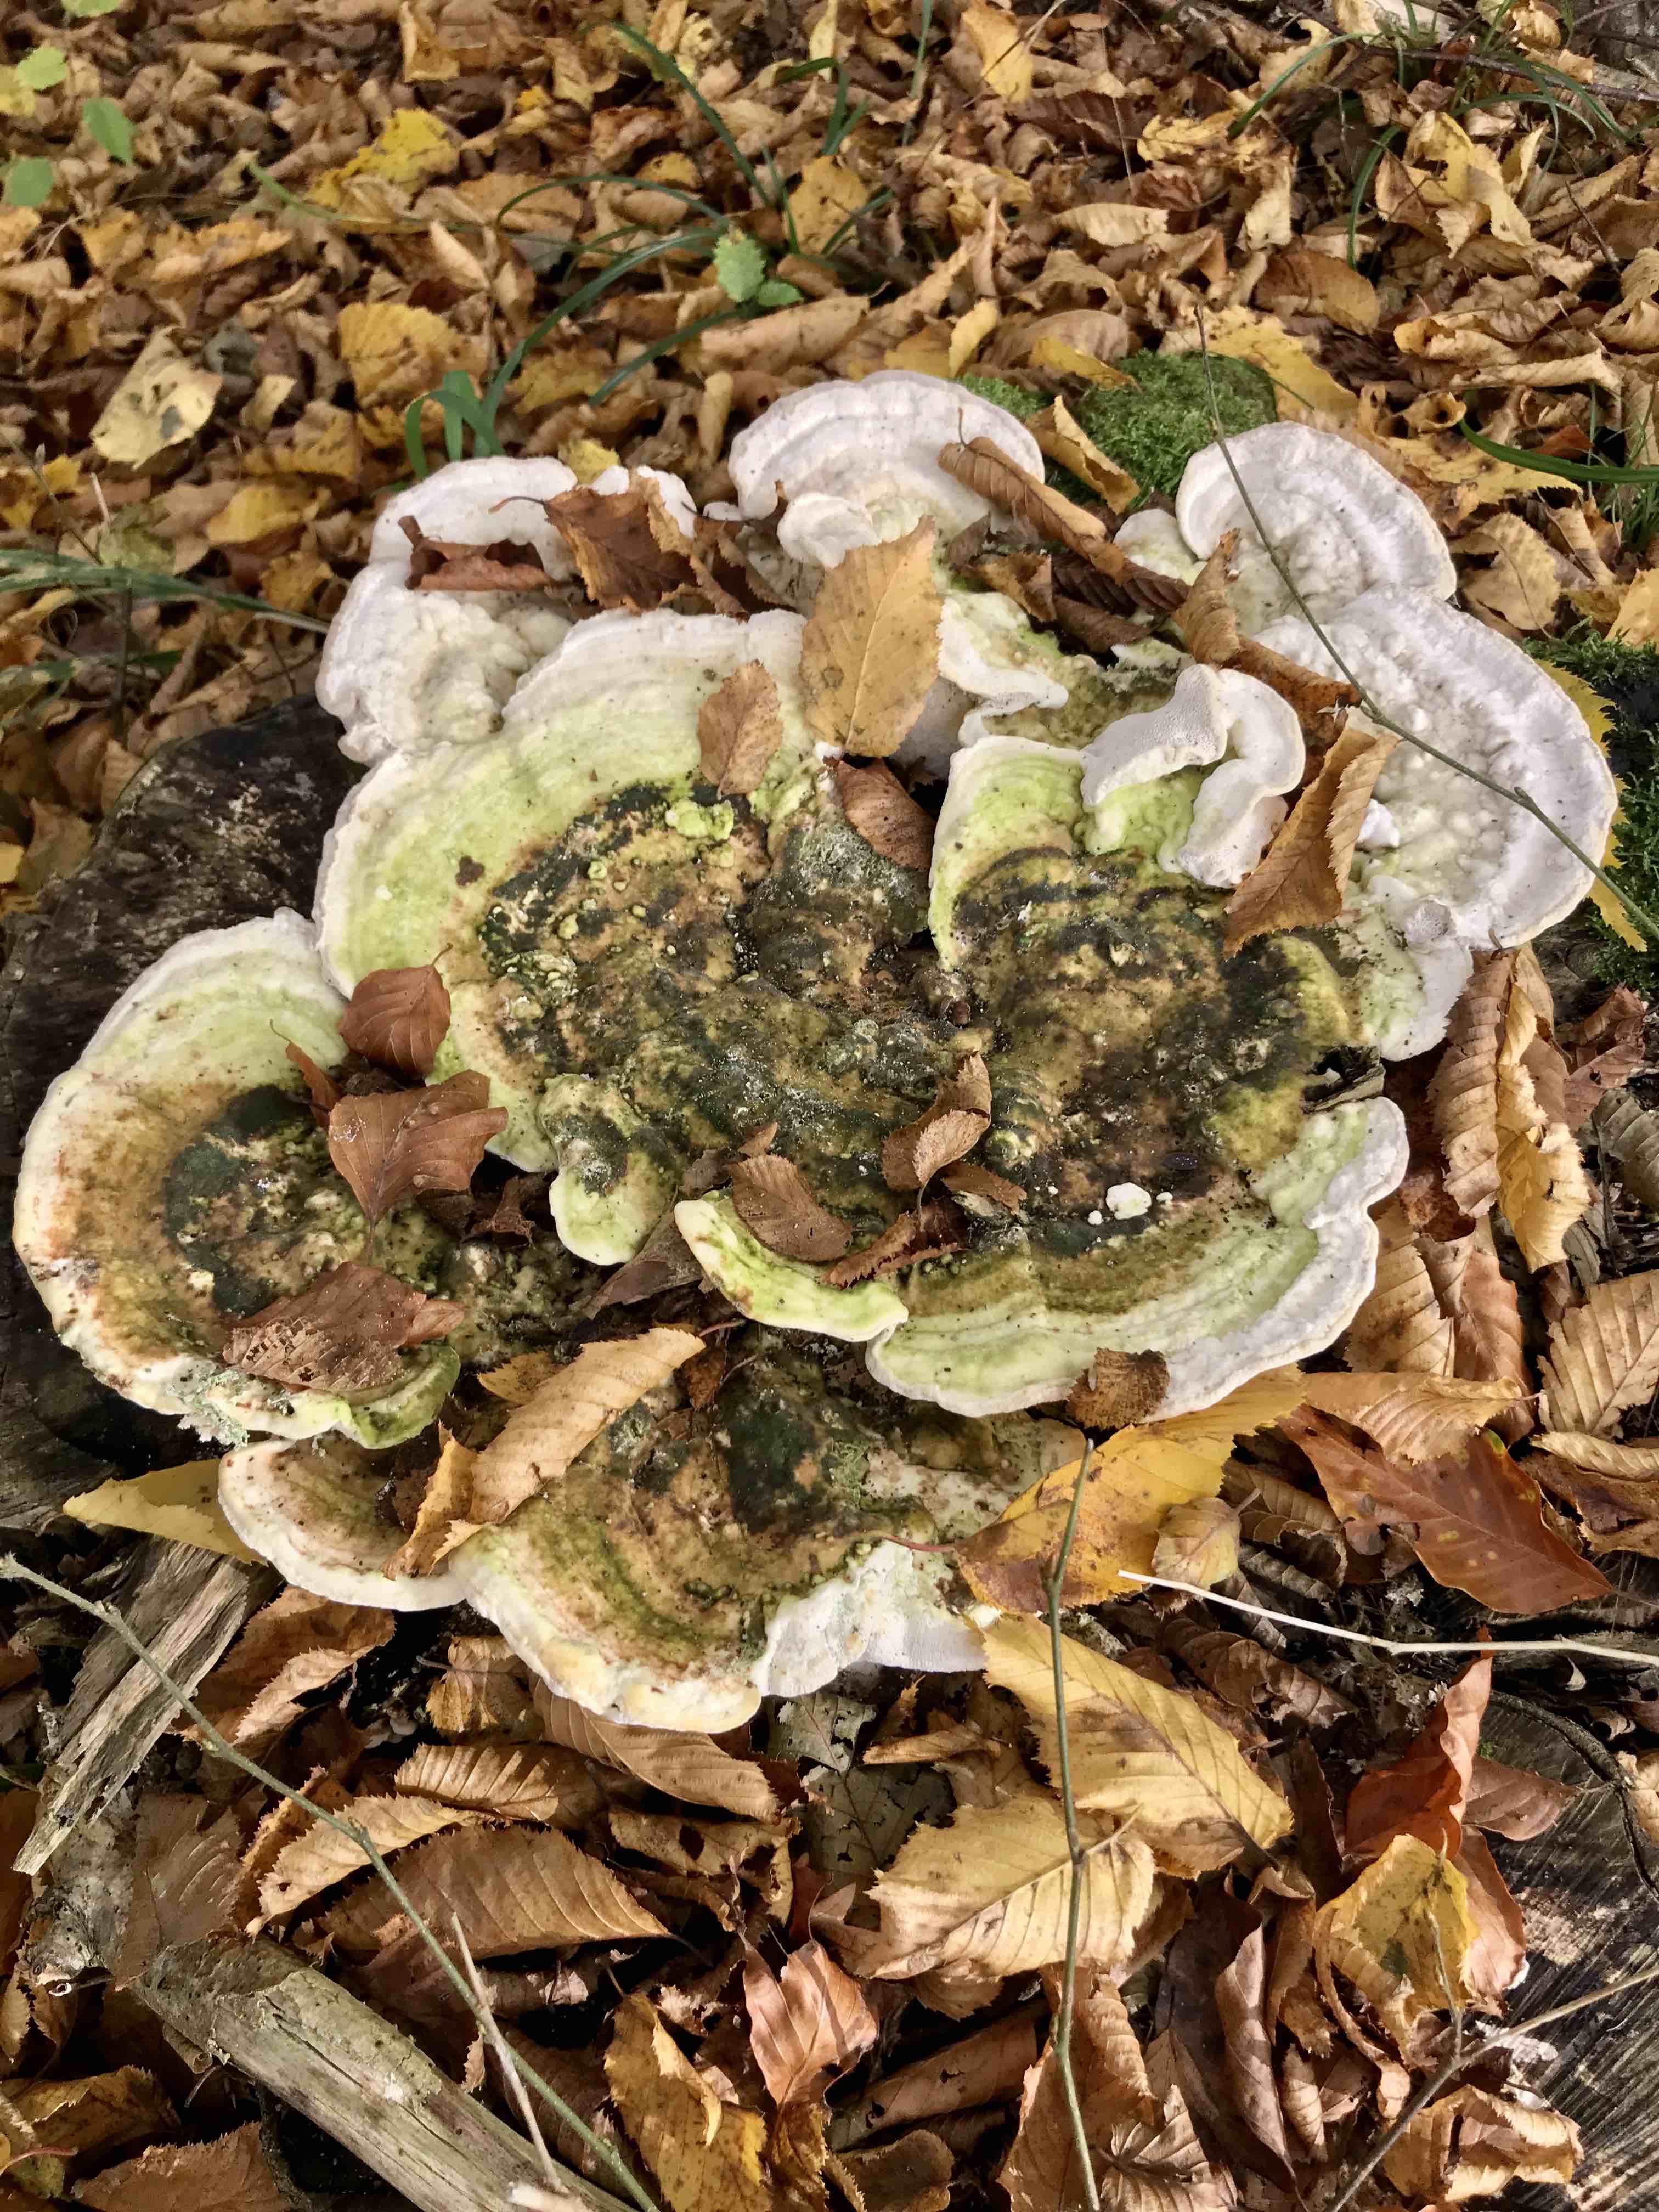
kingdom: Fungi
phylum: Basidiomycota
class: Agaricomycetes
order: Polyporales
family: Polyporaceae
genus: Trametes
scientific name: Trametes gibbosa
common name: puklet læderporesvamp
